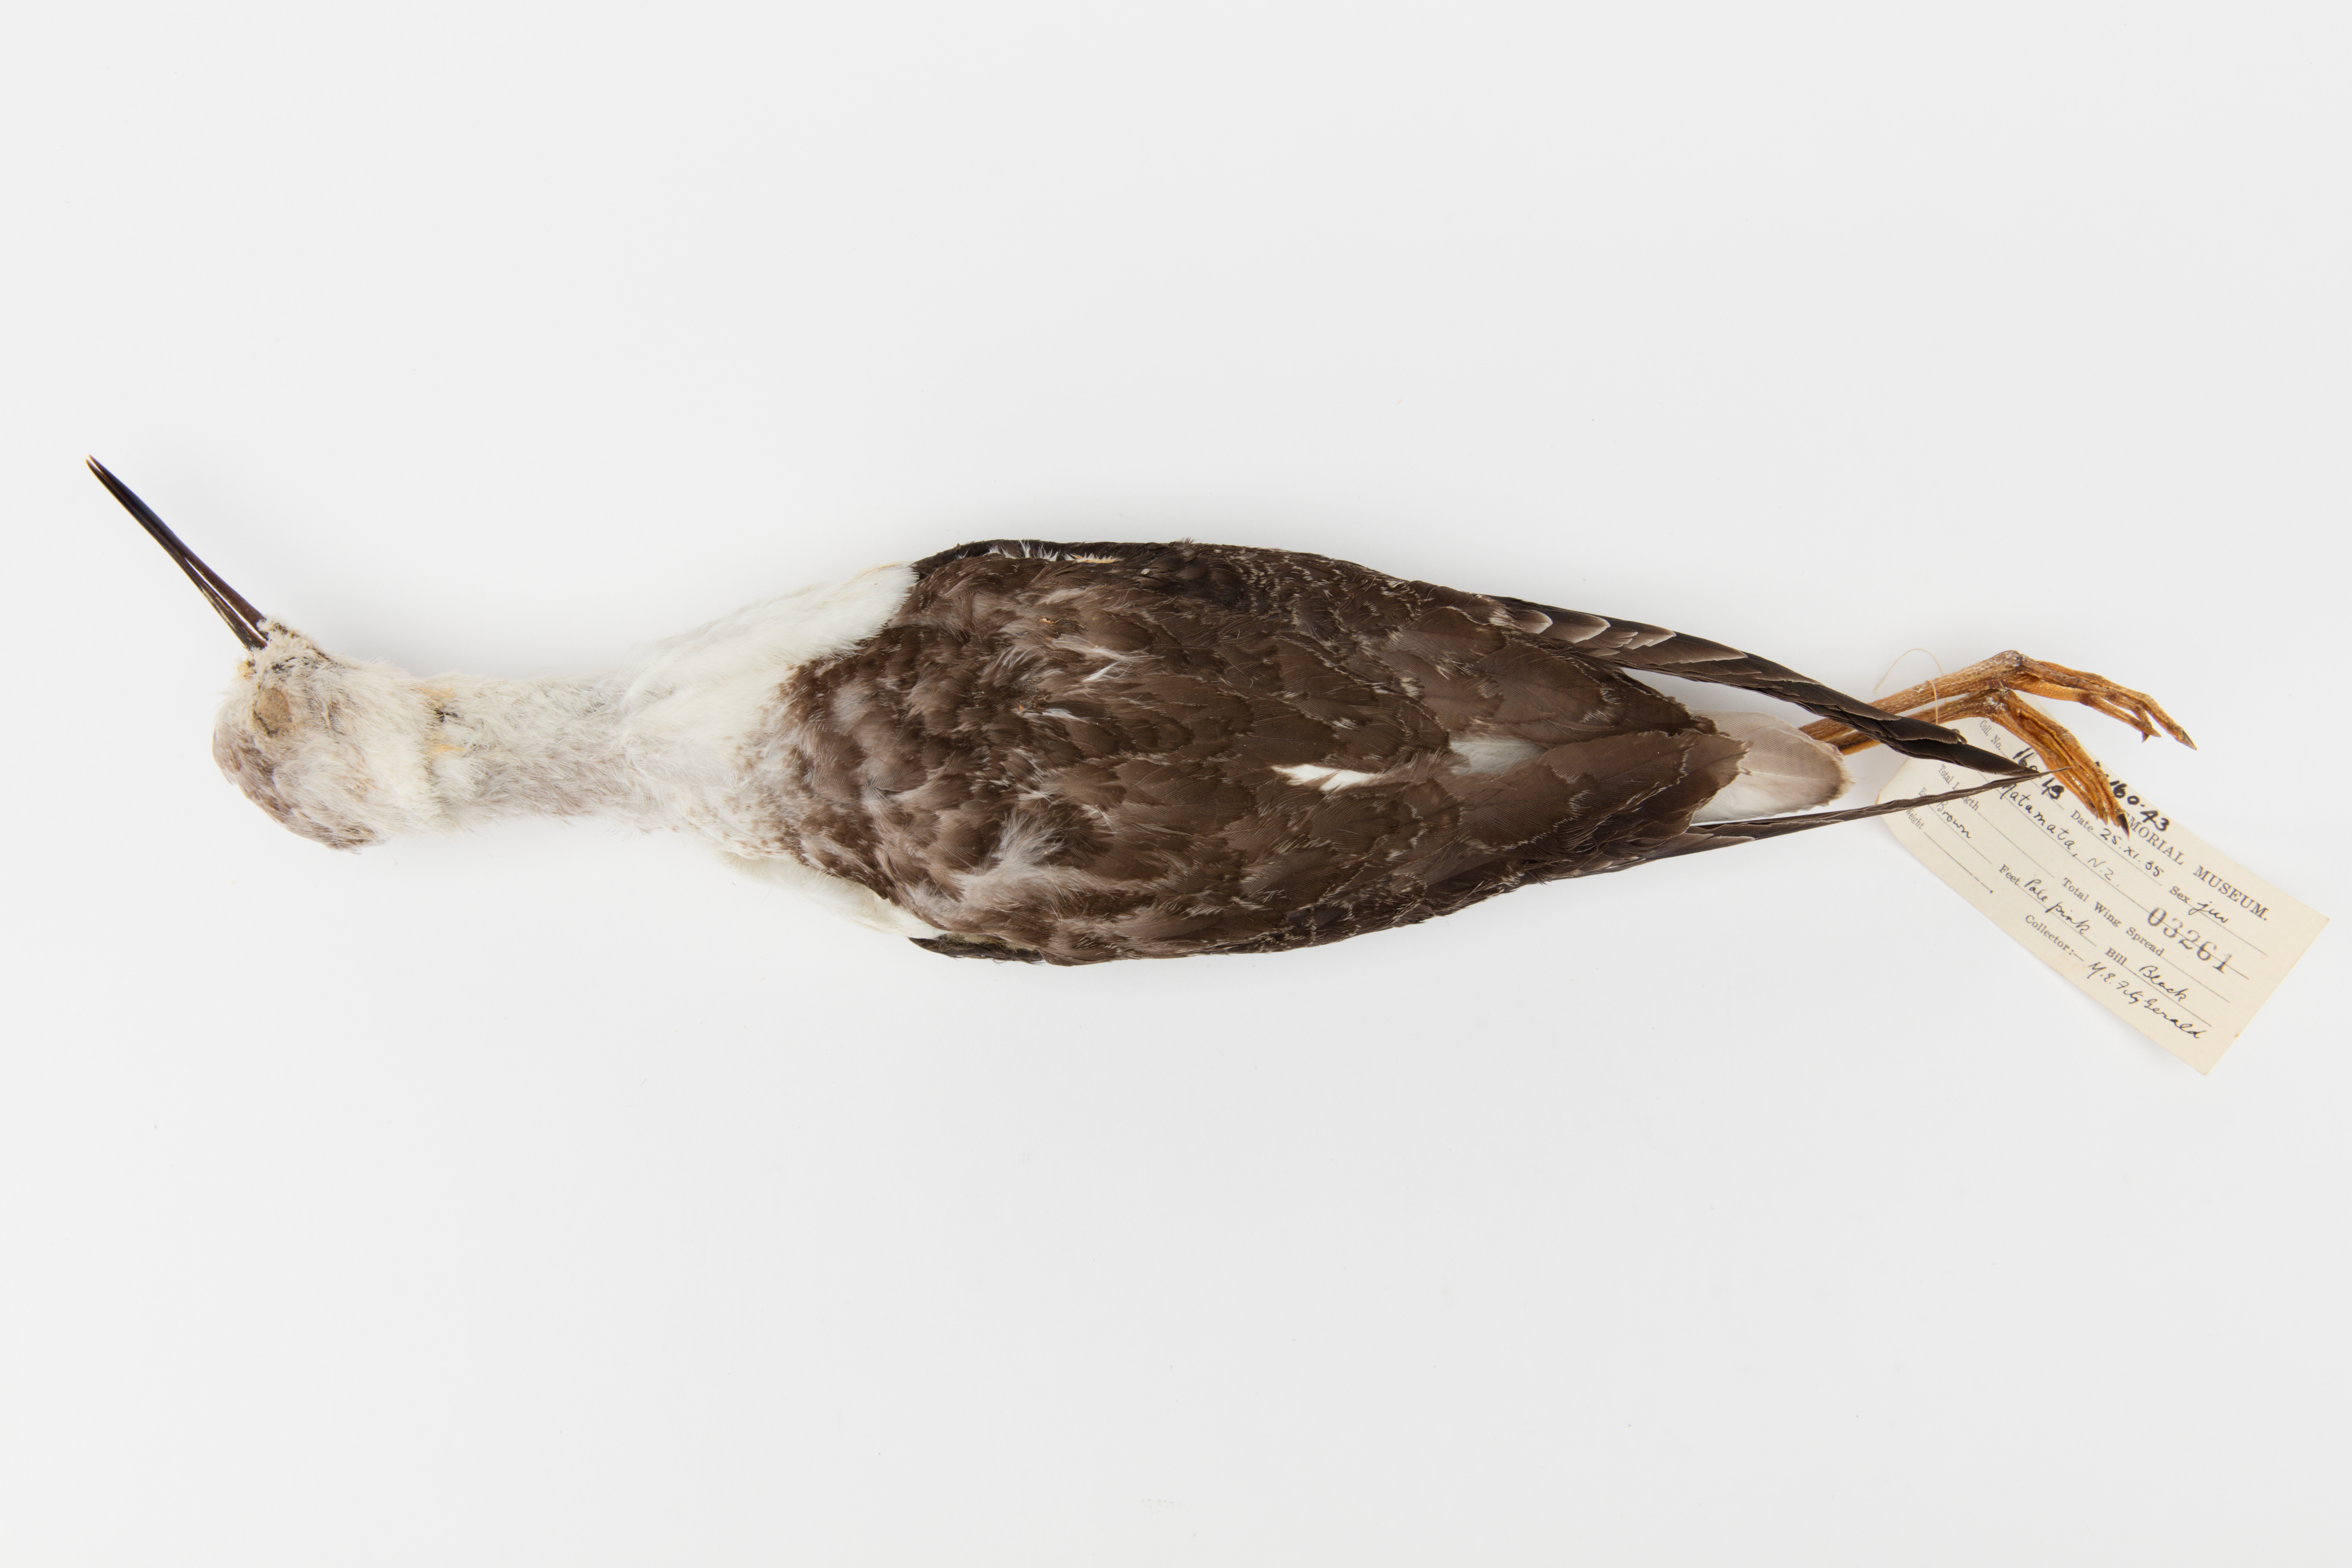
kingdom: Animalia
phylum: Chordata
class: Aves
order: Charadriiformes
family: Recurvirostridae
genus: Himantopus
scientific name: Himantopus himantopus
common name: Black-winged stilt
